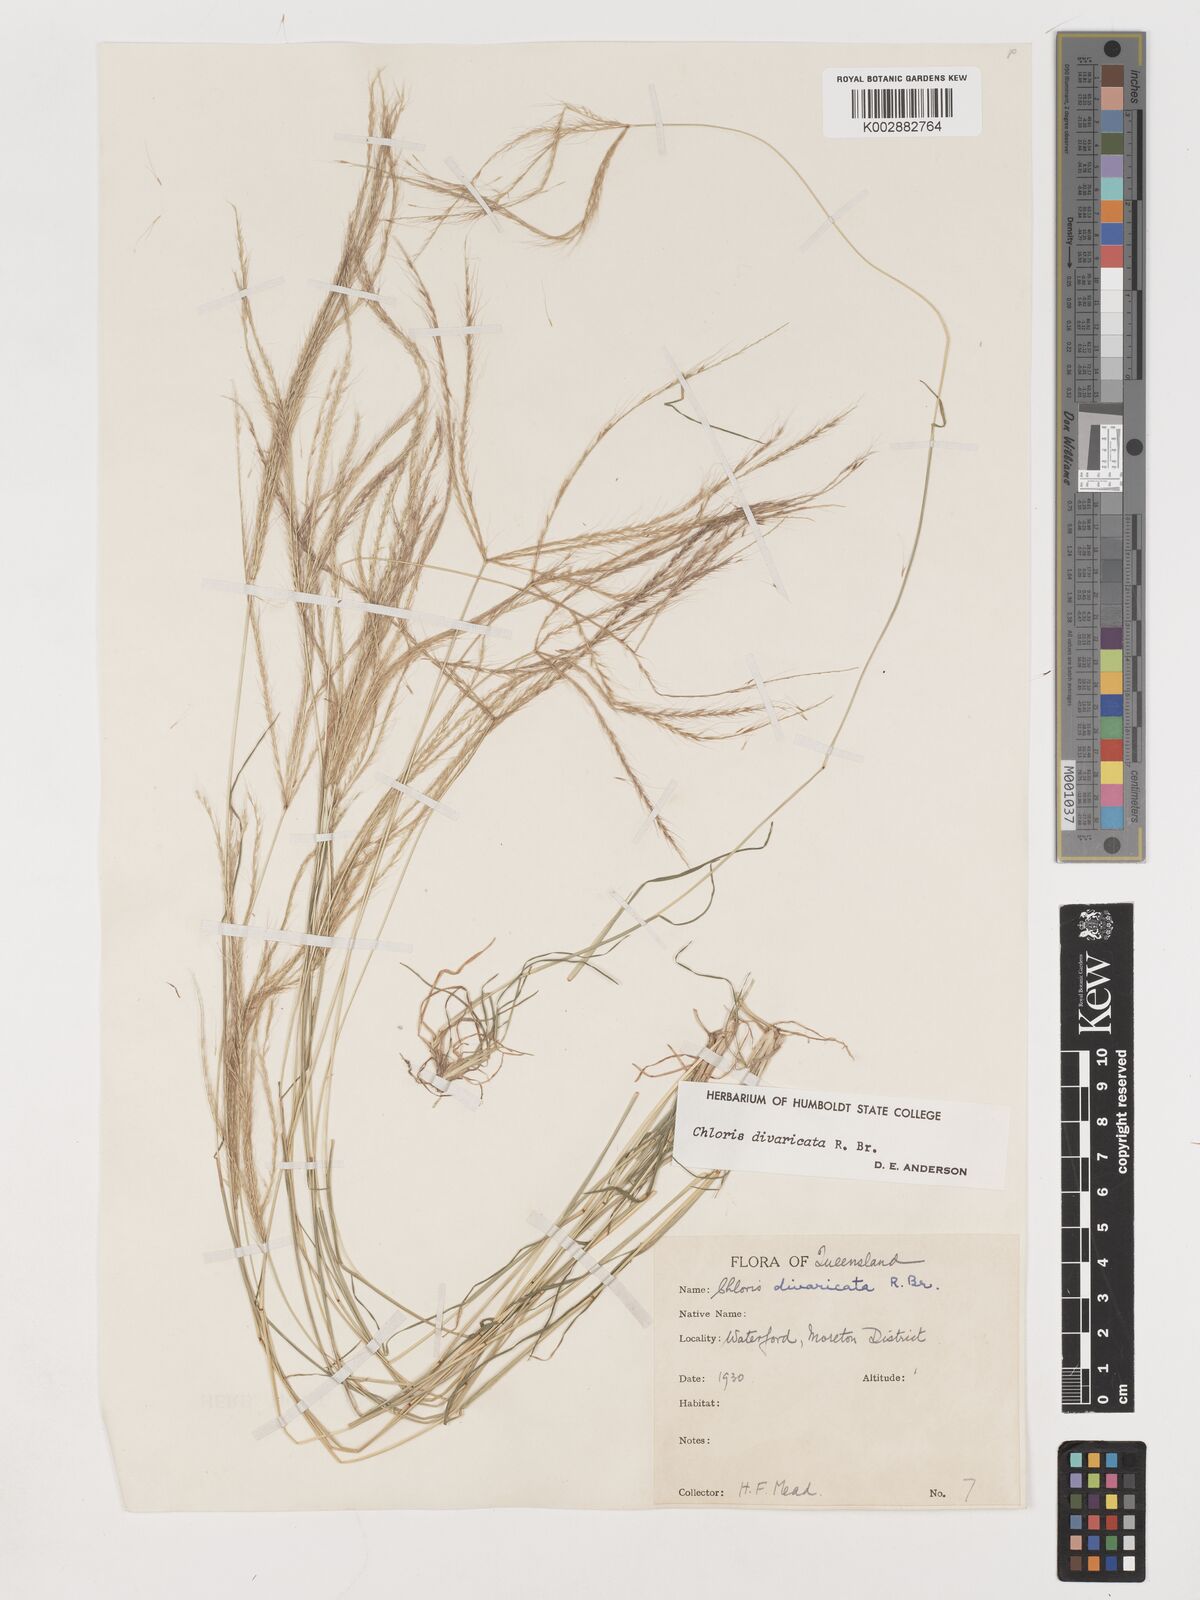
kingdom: Plantae
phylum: Tracheophyta
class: Liliopsida
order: Poales
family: Poaceae
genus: Chloris
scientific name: Chloris divaricata
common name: Spreading windmill grass
